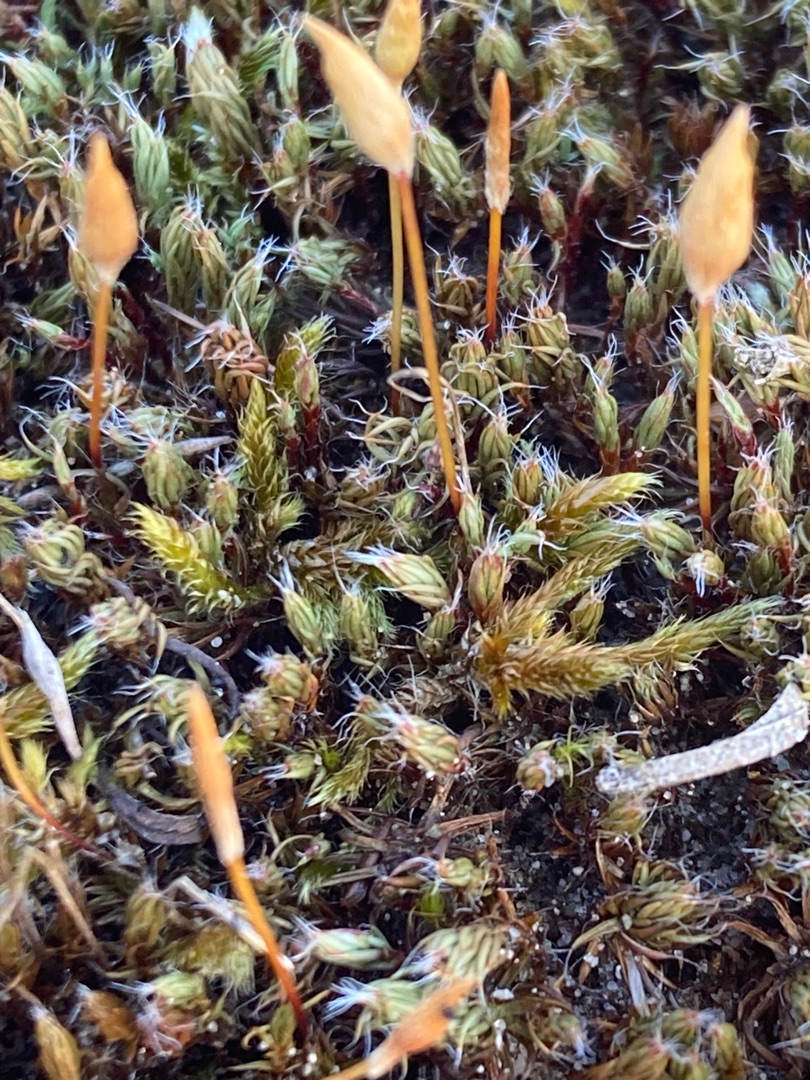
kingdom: Plantae
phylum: Bryophyta
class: Polytrichopsida
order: Polytrichales
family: Polytrichaceae
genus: Polytrichum
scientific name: Polytrichum piliferum
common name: Hårspidset jomfruhår
